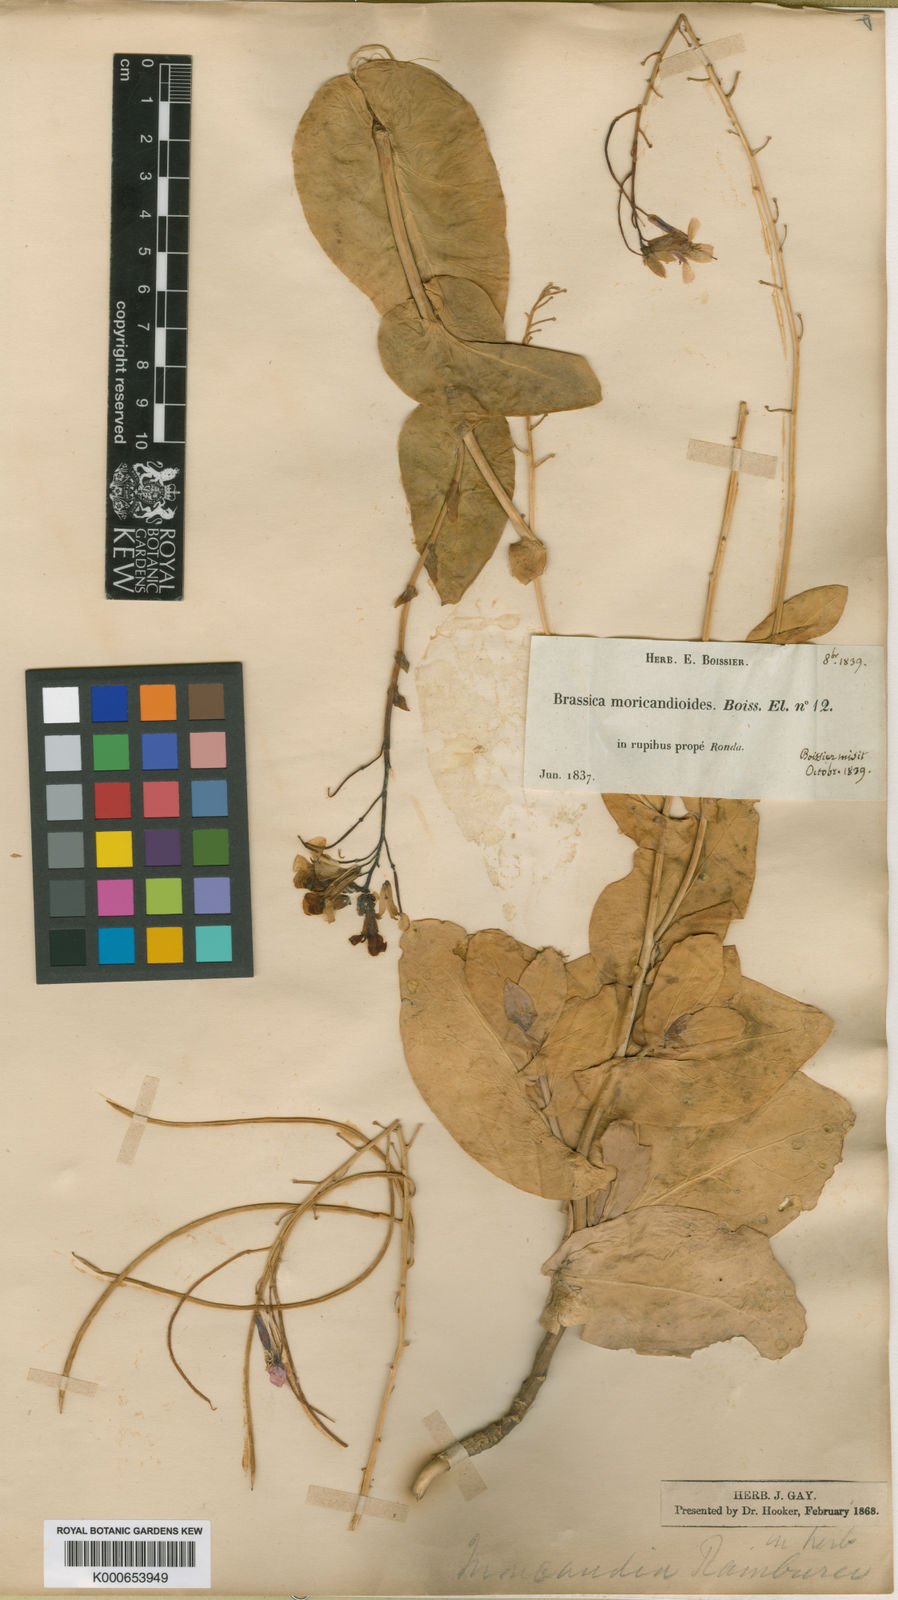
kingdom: Plantae
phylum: Tracheophyta
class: Magnoliopsida
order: Brassicales
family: Brassicaceae
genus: Moricandia
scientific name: Moricandia moricandioides
